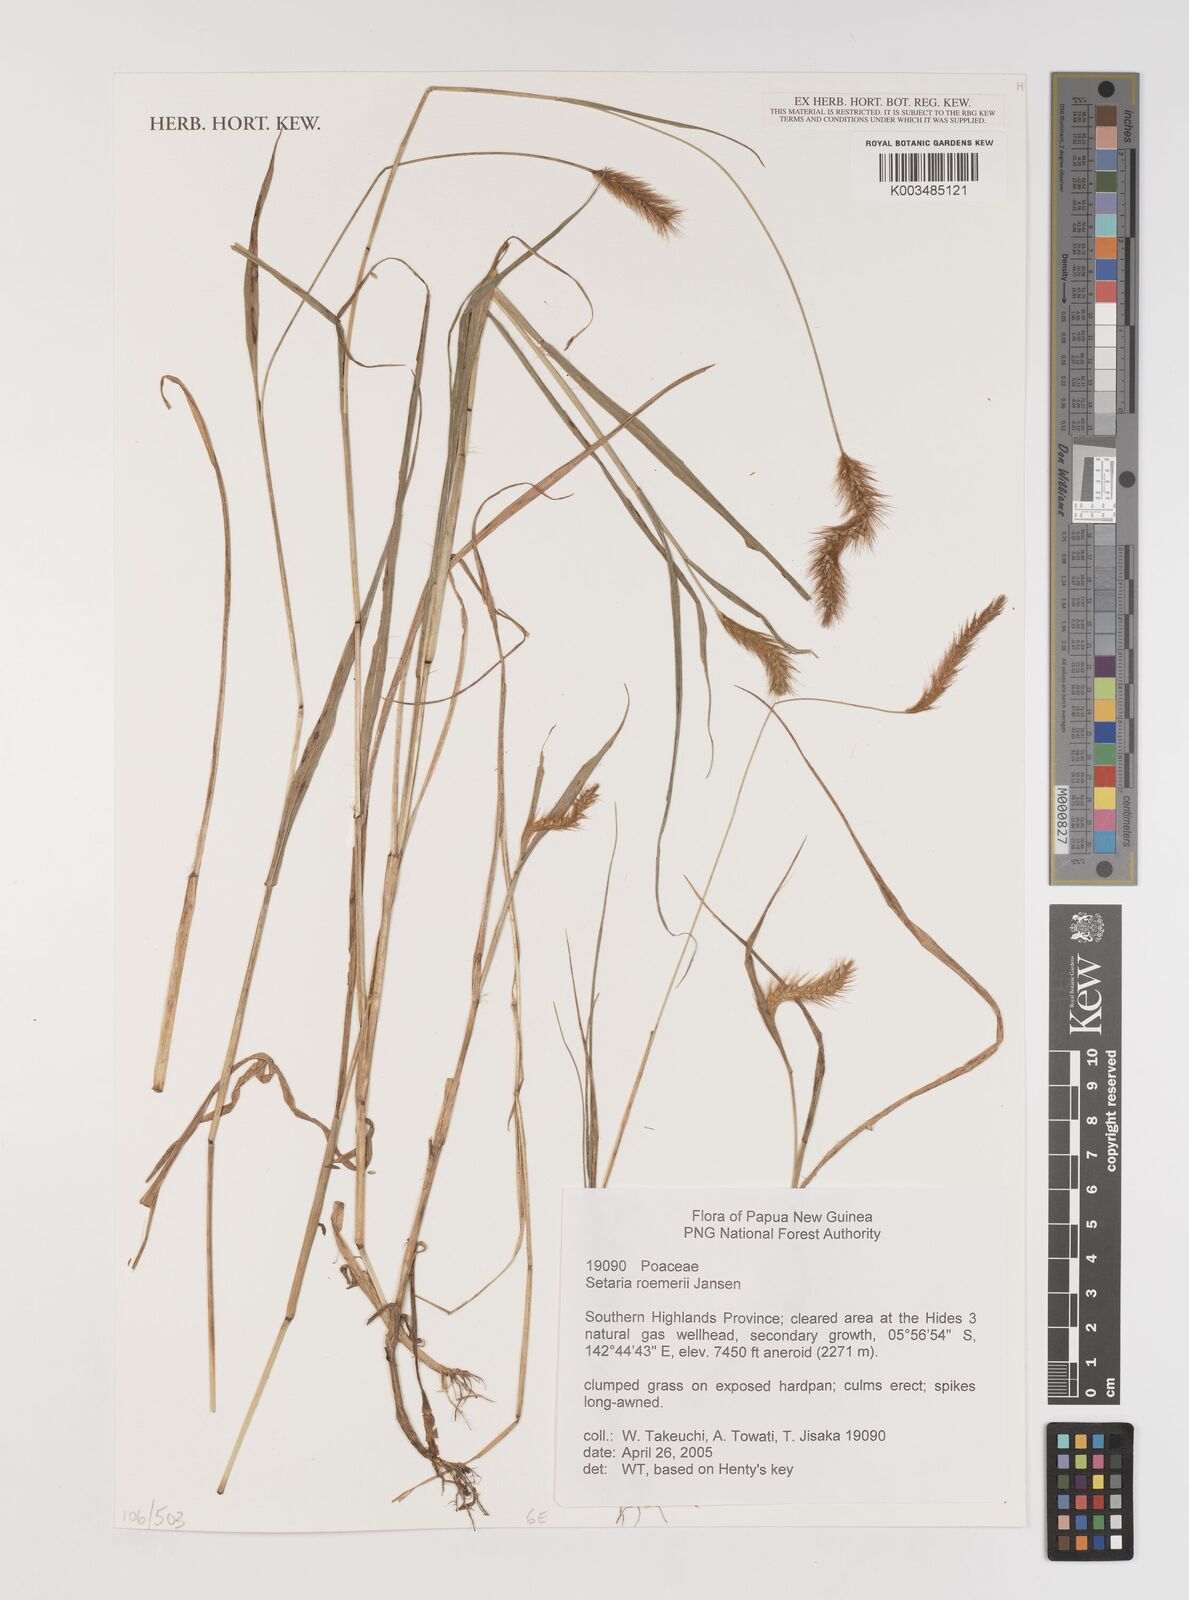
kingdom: Plantae
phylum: Tracheophyta
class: Liliopsida
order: Poales
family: Poaceae
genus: Setaria
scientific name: Setaria roemeri
